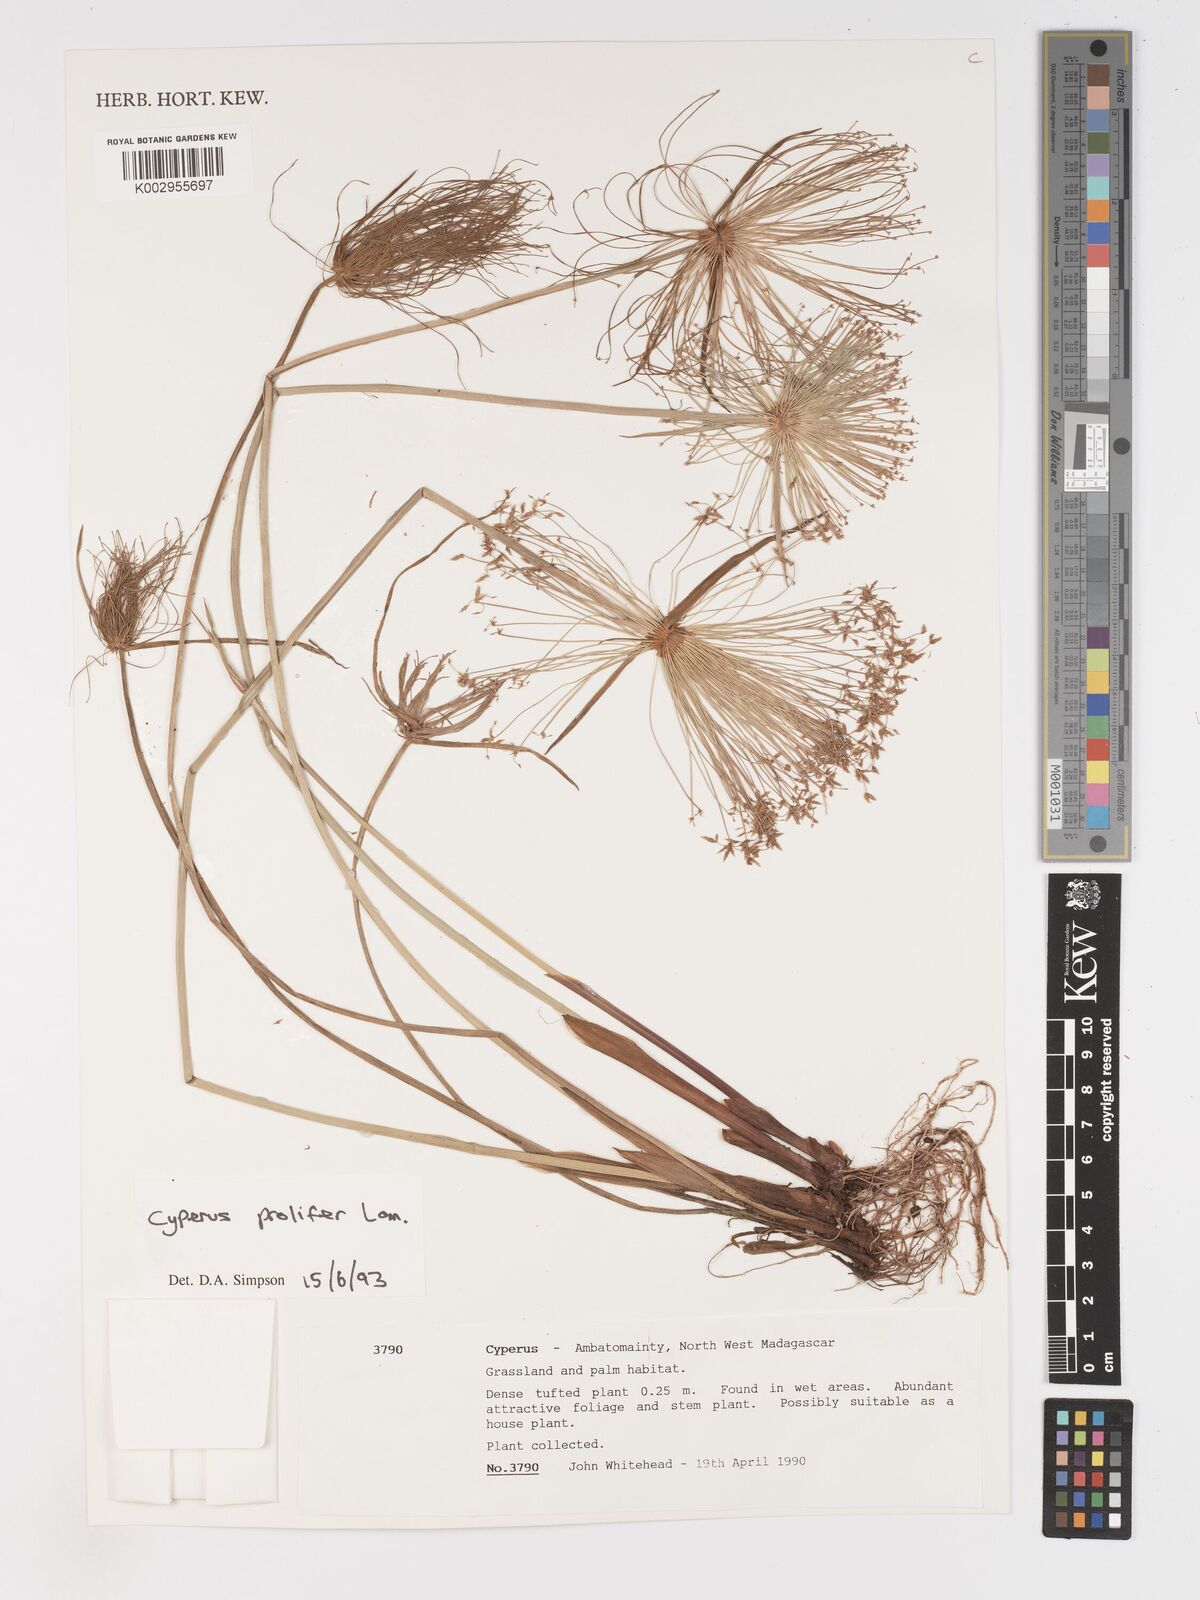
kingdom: Plantae
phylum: Tracheophyta
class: Liliopsida
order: Poales
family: Cyperaceae
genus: Cyperus
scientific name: Cyperus prolifer
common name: Miniature flatsedge
